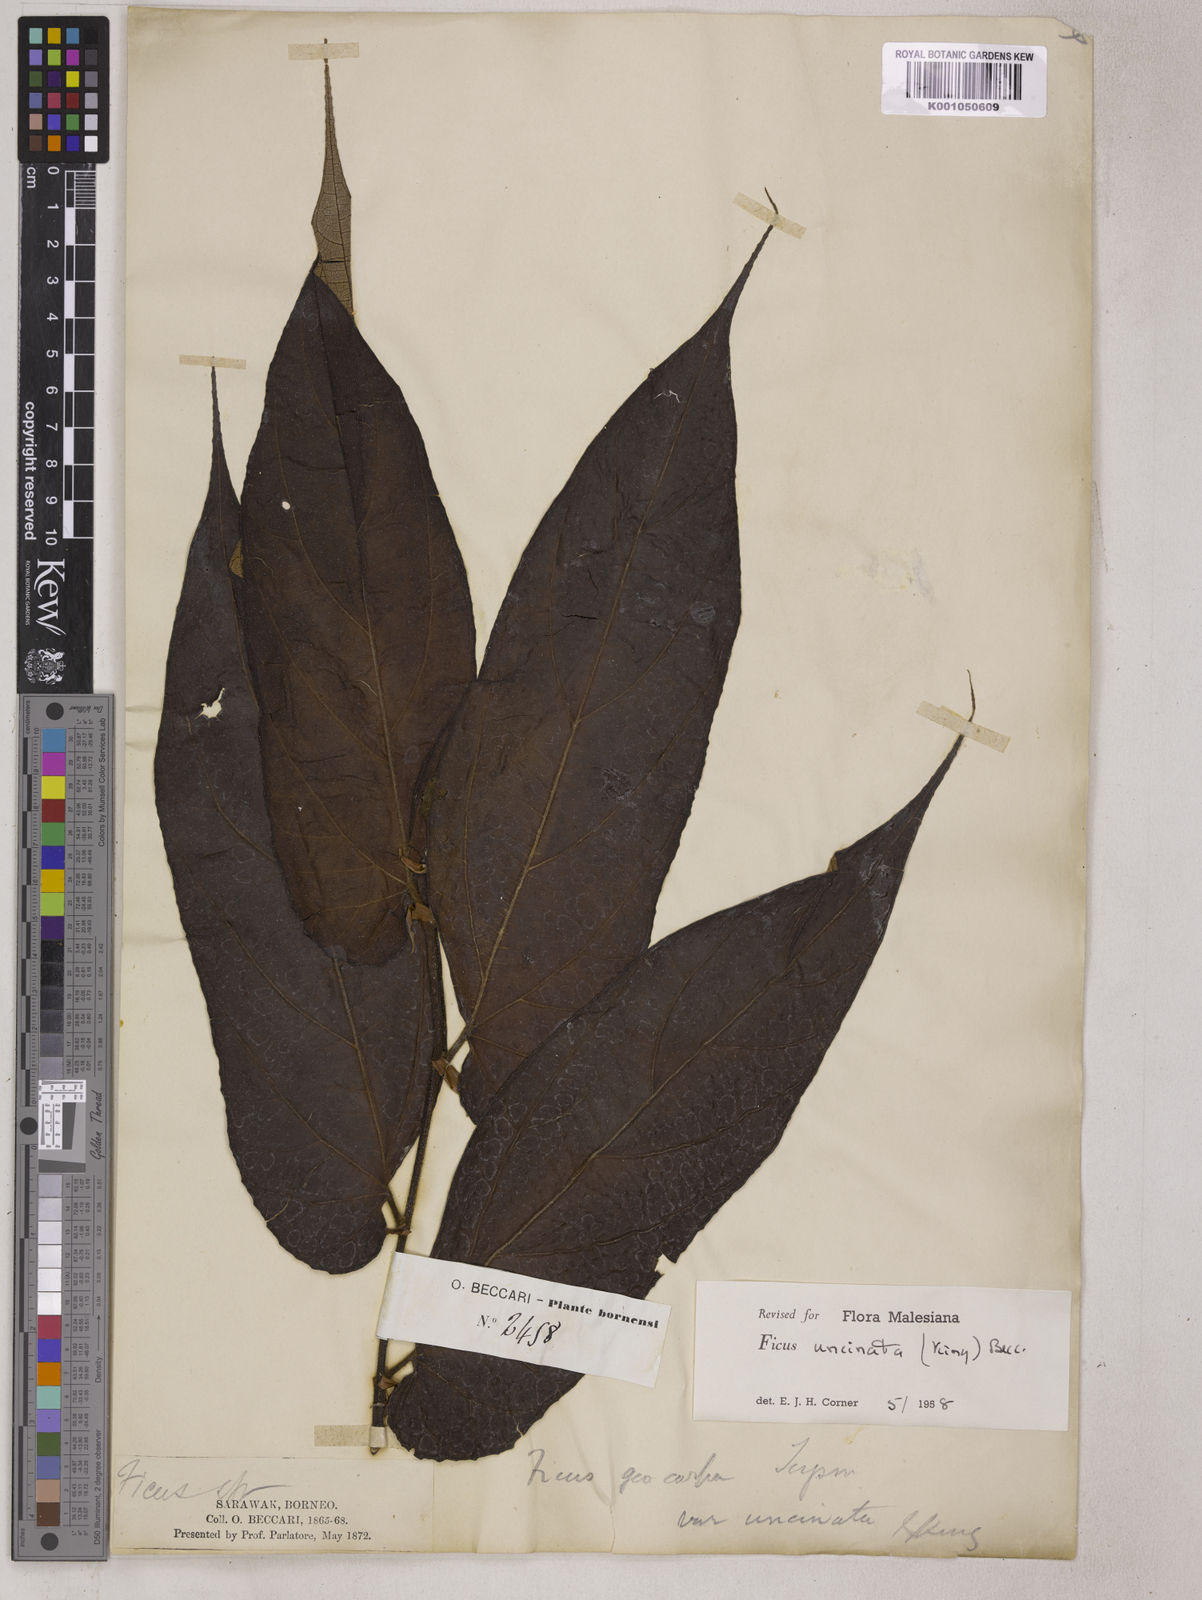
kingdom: Plantae
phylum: Tracheophyta
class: Magnoliopsida
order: Rosales
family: Moraceae
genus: Ficus
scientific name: Ficus uncinata
